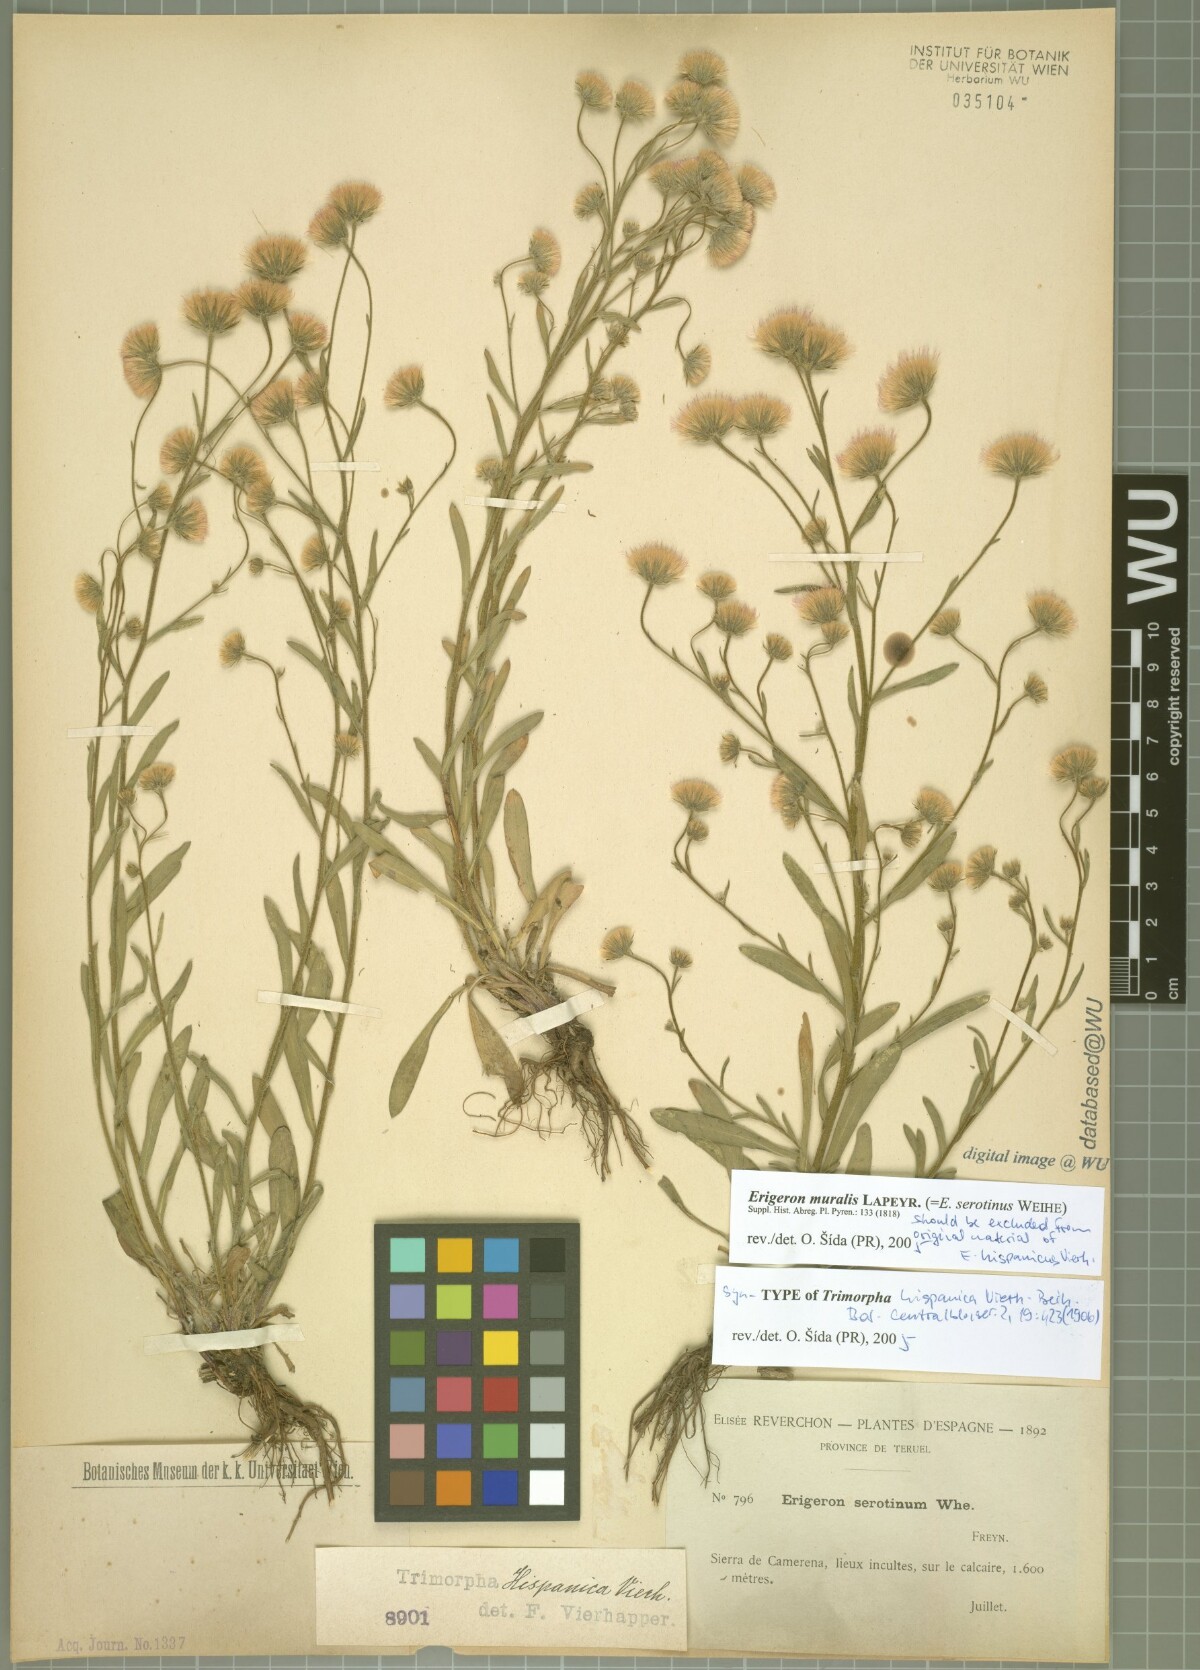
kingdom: Plantae
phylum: Tracheophyta
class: Magnoliopsida
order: Asterales
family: Asteraceae
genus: Erigeron
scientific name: Erigeron hispanicus
